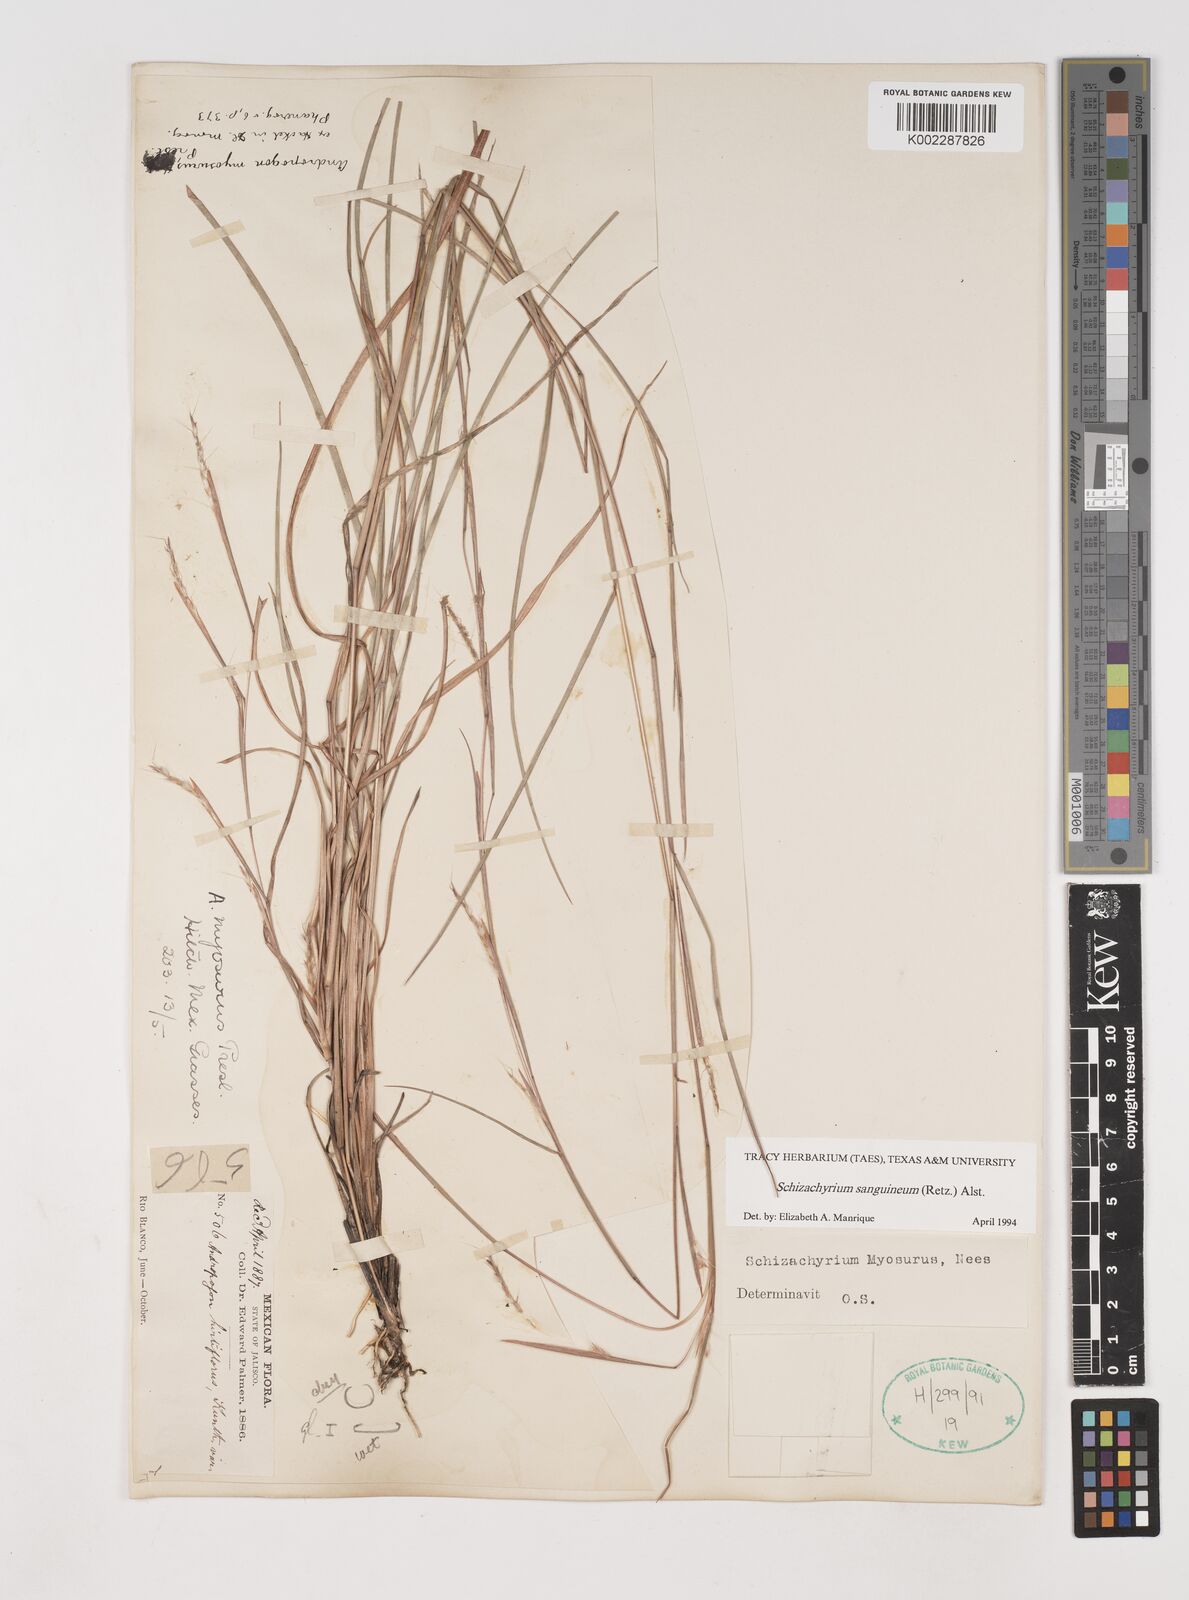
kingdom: Plantae
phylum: Tracheophyta
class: Liliopsida
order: Poales
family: Poaceae
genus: Schizachyrium
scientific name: Schizachyrium sanguineum
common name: Crimson bluestem
